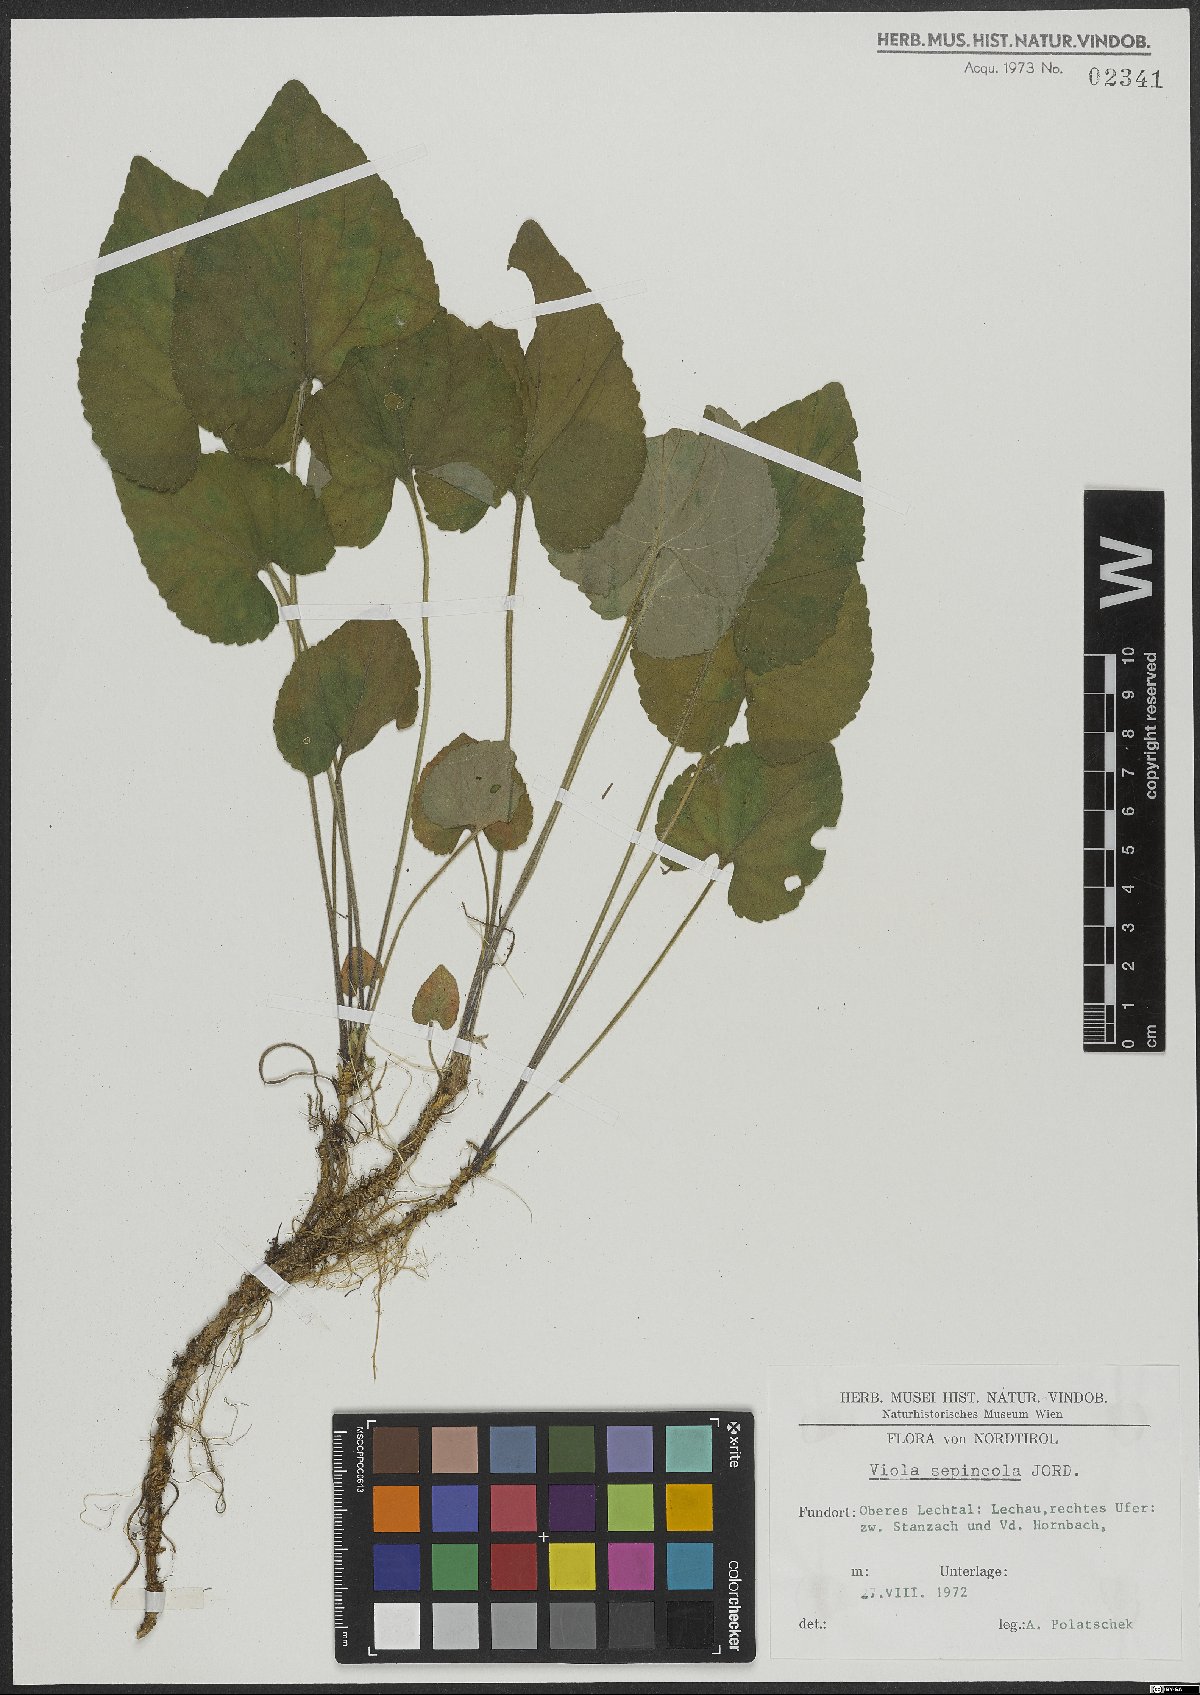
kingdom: Plantae
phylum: Tracheophyta
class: Magnoliopsida
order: Malpighiales
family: Violaceae
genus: Viola
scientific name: Viola suavis
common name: Russian violet
